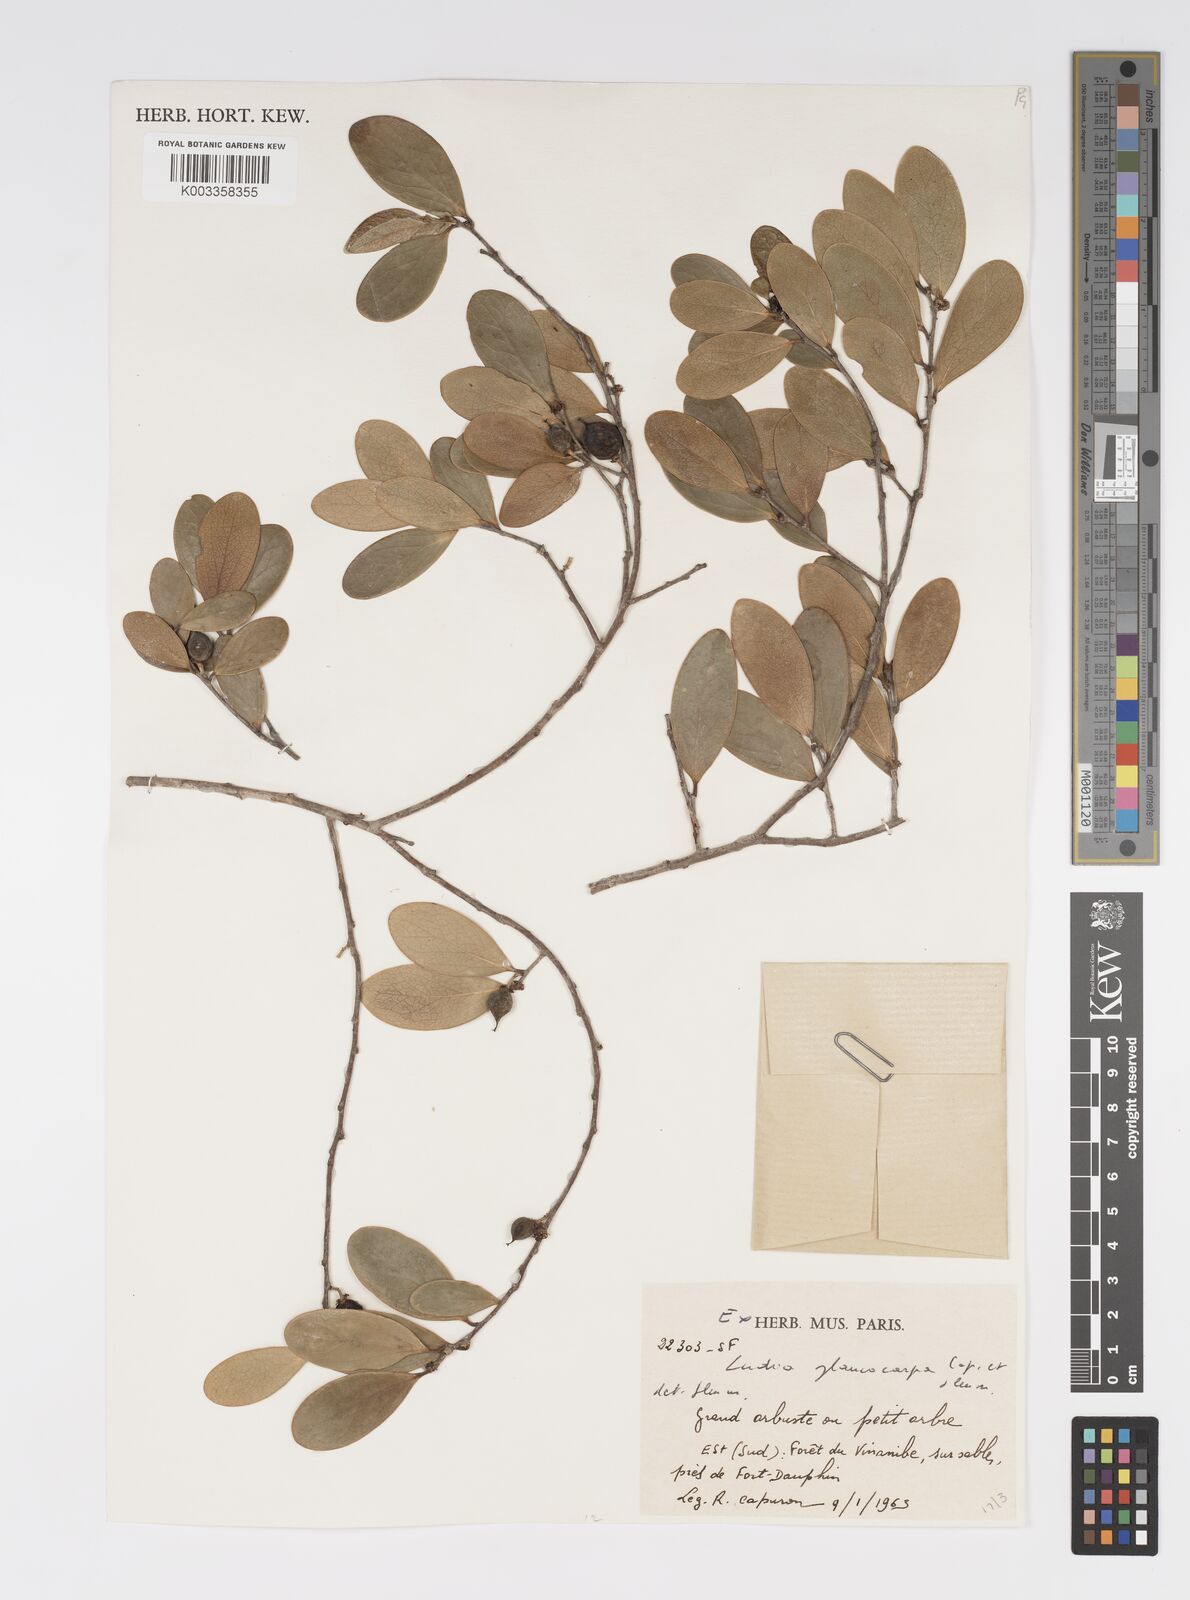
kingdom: Plantae
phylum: Tracheophyta
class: Magnoliopsida
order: Malpighiales
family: Salicaceae
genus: Ludia
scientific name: Ludia glaucocarpa
